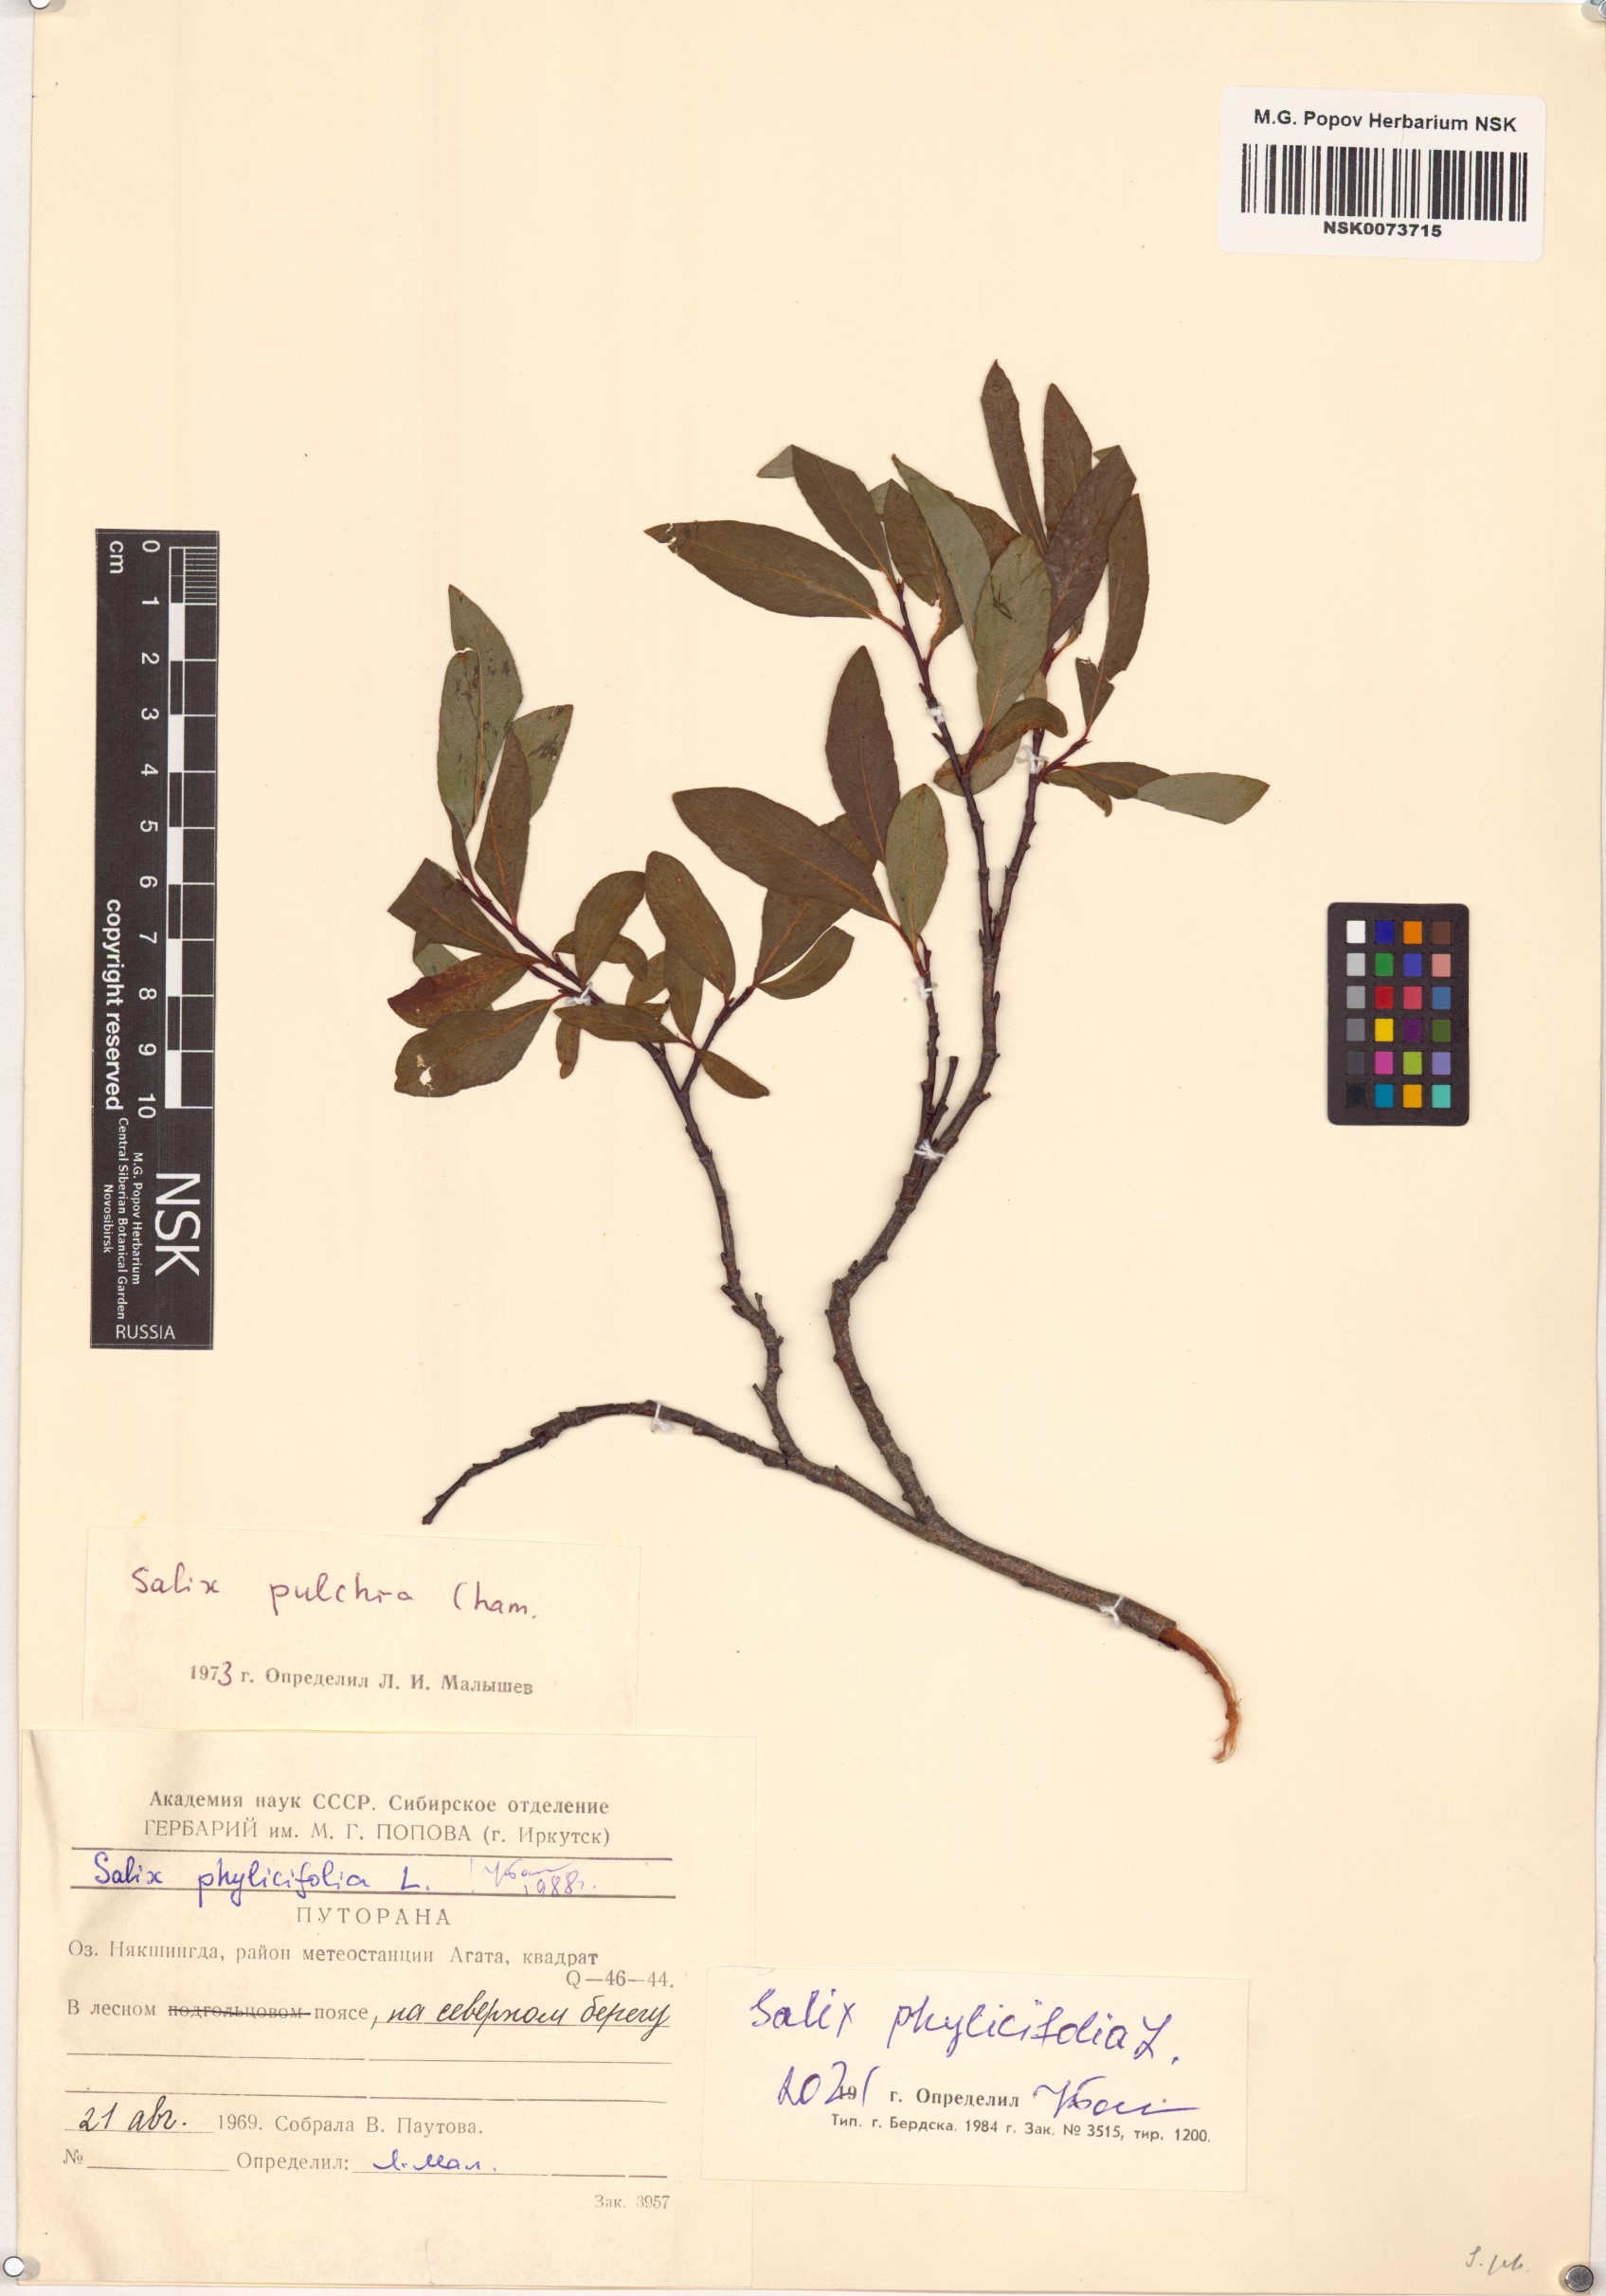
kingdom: Plantae
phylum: Tracheophyta
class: Magnoliopsida
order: Malpighiales
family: Salicaceae
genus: Salix
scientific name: Salix phylicifolia
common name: Tea-leaved willow
